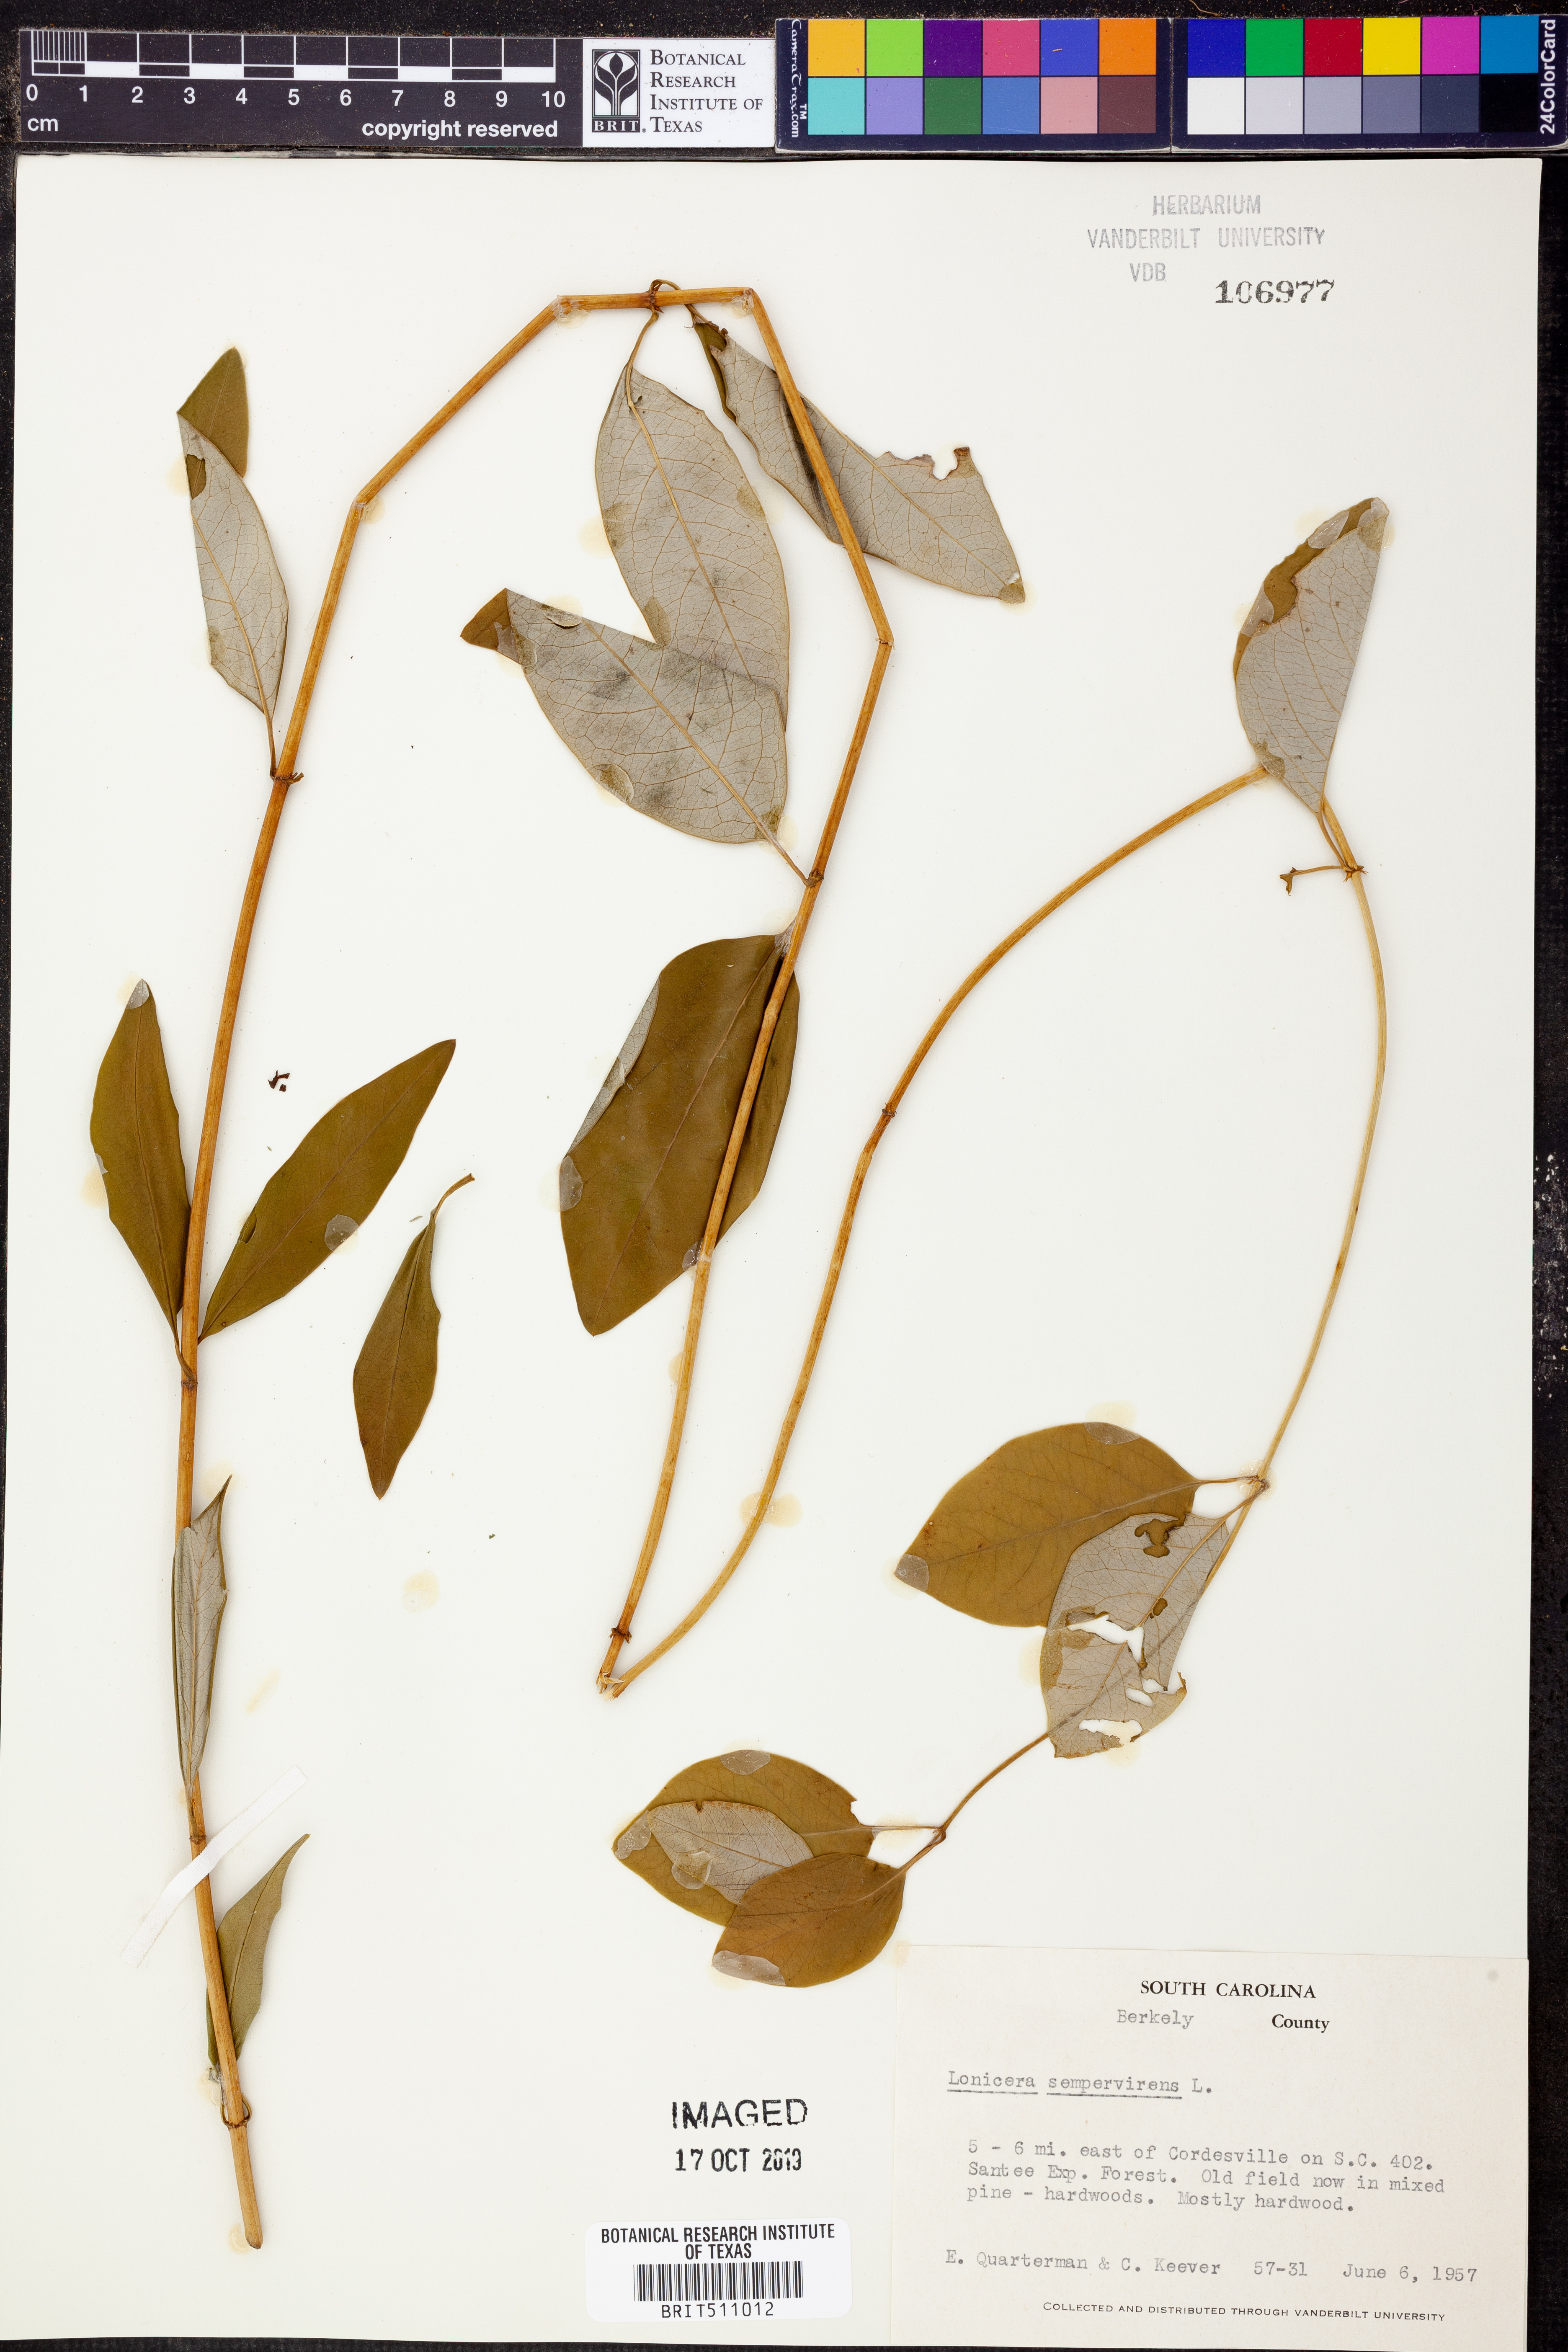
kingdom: Plantae
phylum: Tracheophyta
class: Magnoliopsida
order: Dipsacales
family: Caprifoliaceae
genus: Lonicera
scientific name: Lonicera sempervirens
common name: Coral honeysuckle
